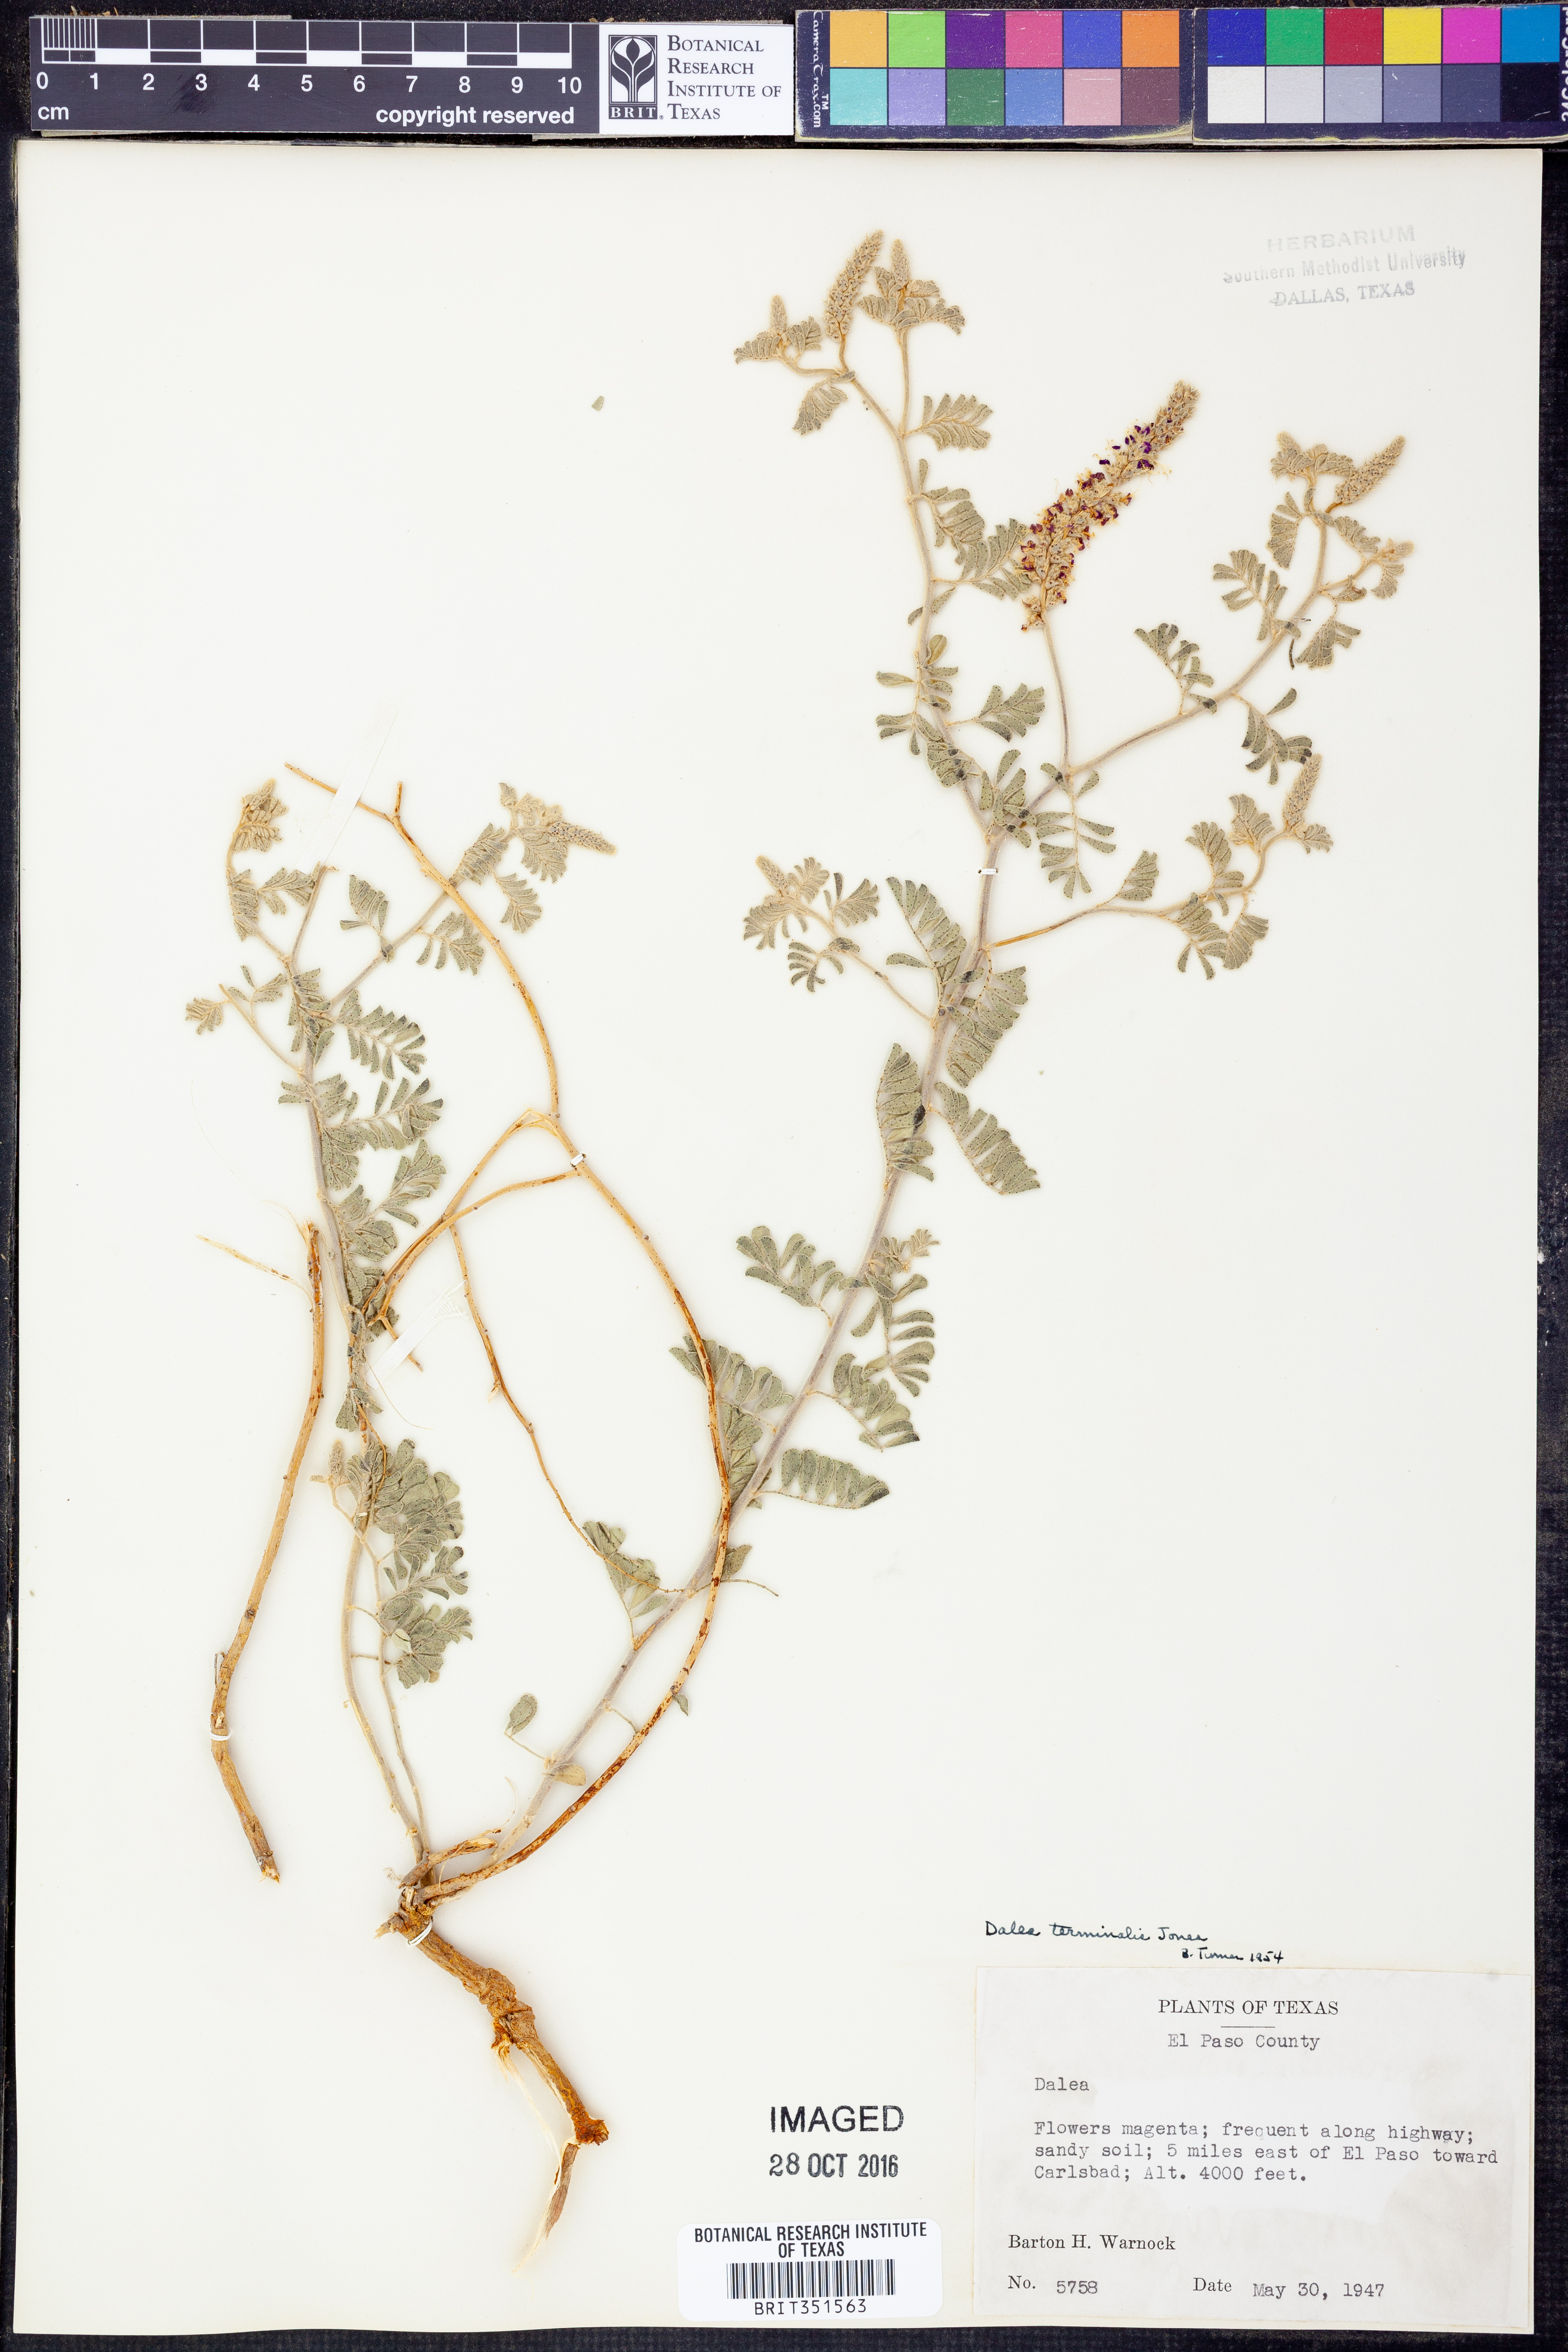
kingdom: Plantae
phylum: Tracheophyta
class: Magnoliopsida
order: Fabales
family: Fabaceae
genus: Dalea
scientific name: Dalea lanata
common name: Woolly dalea
